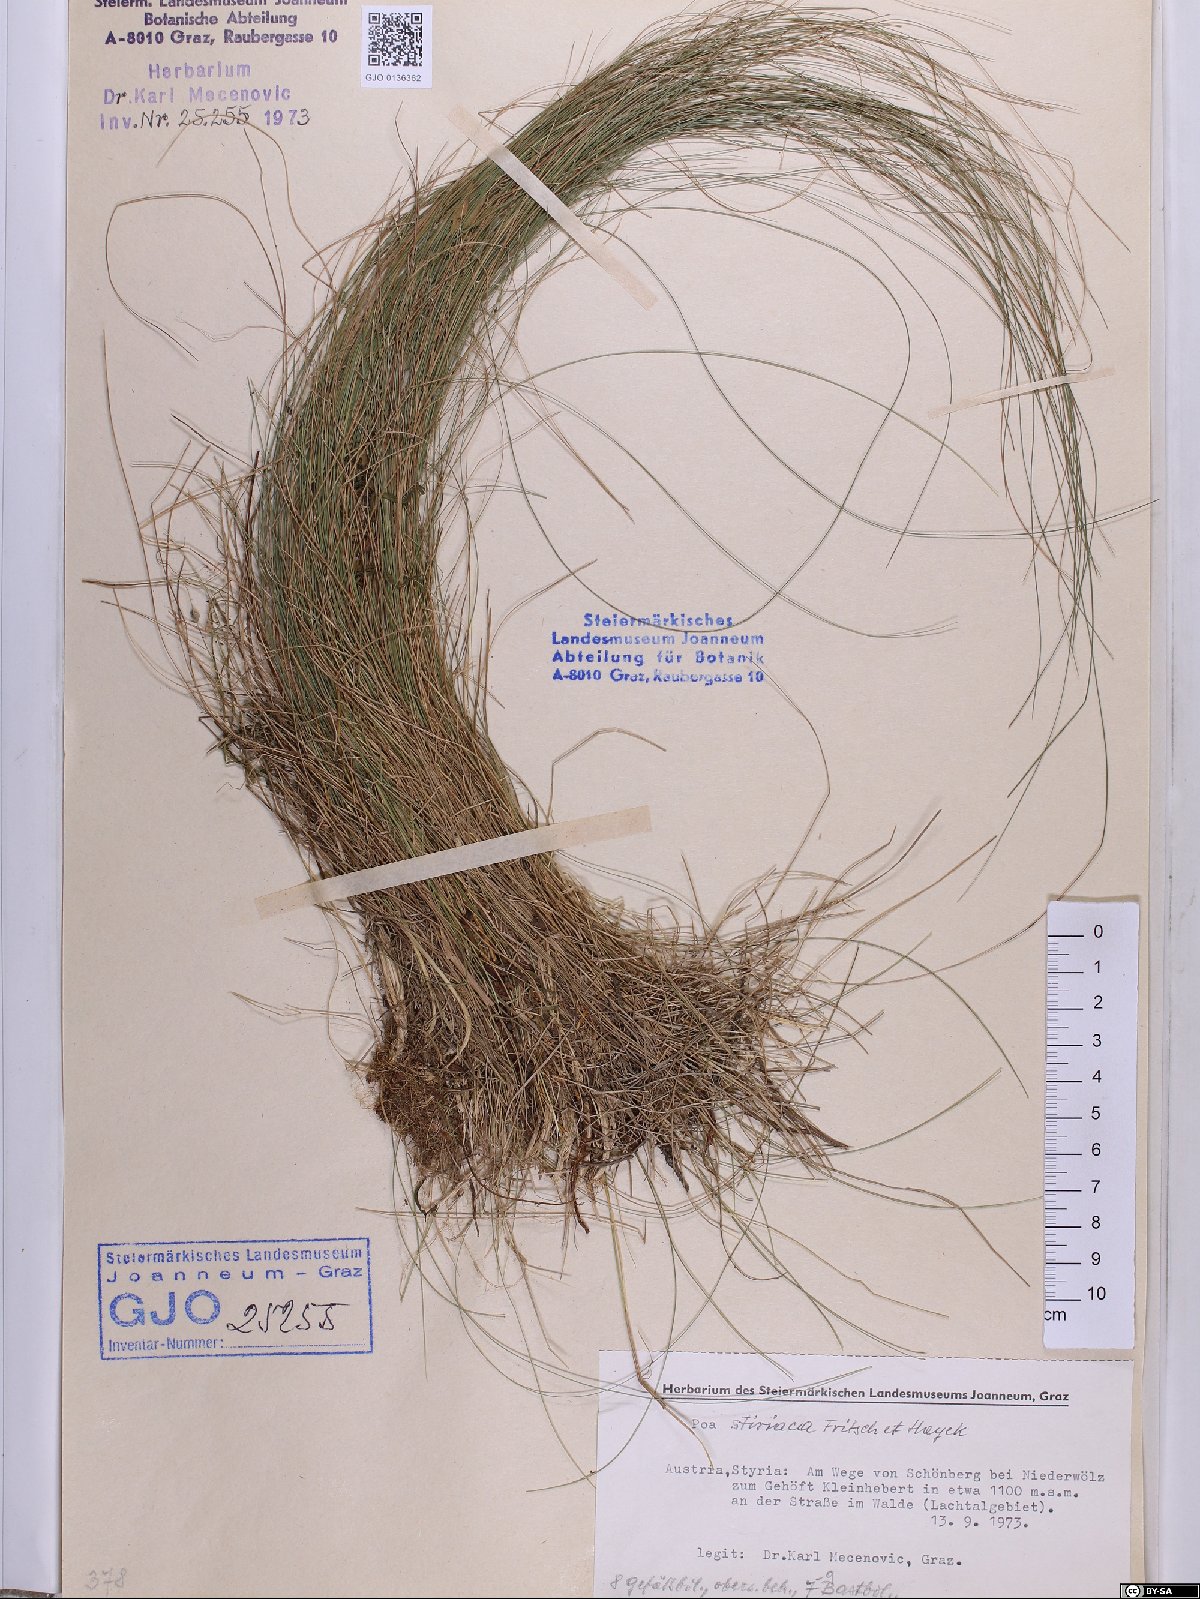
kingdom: Plantae
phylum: Tracheophyta
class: Liliopsida
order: Poales
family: Poaceae
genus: Poa
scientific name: Poa stiriaca
